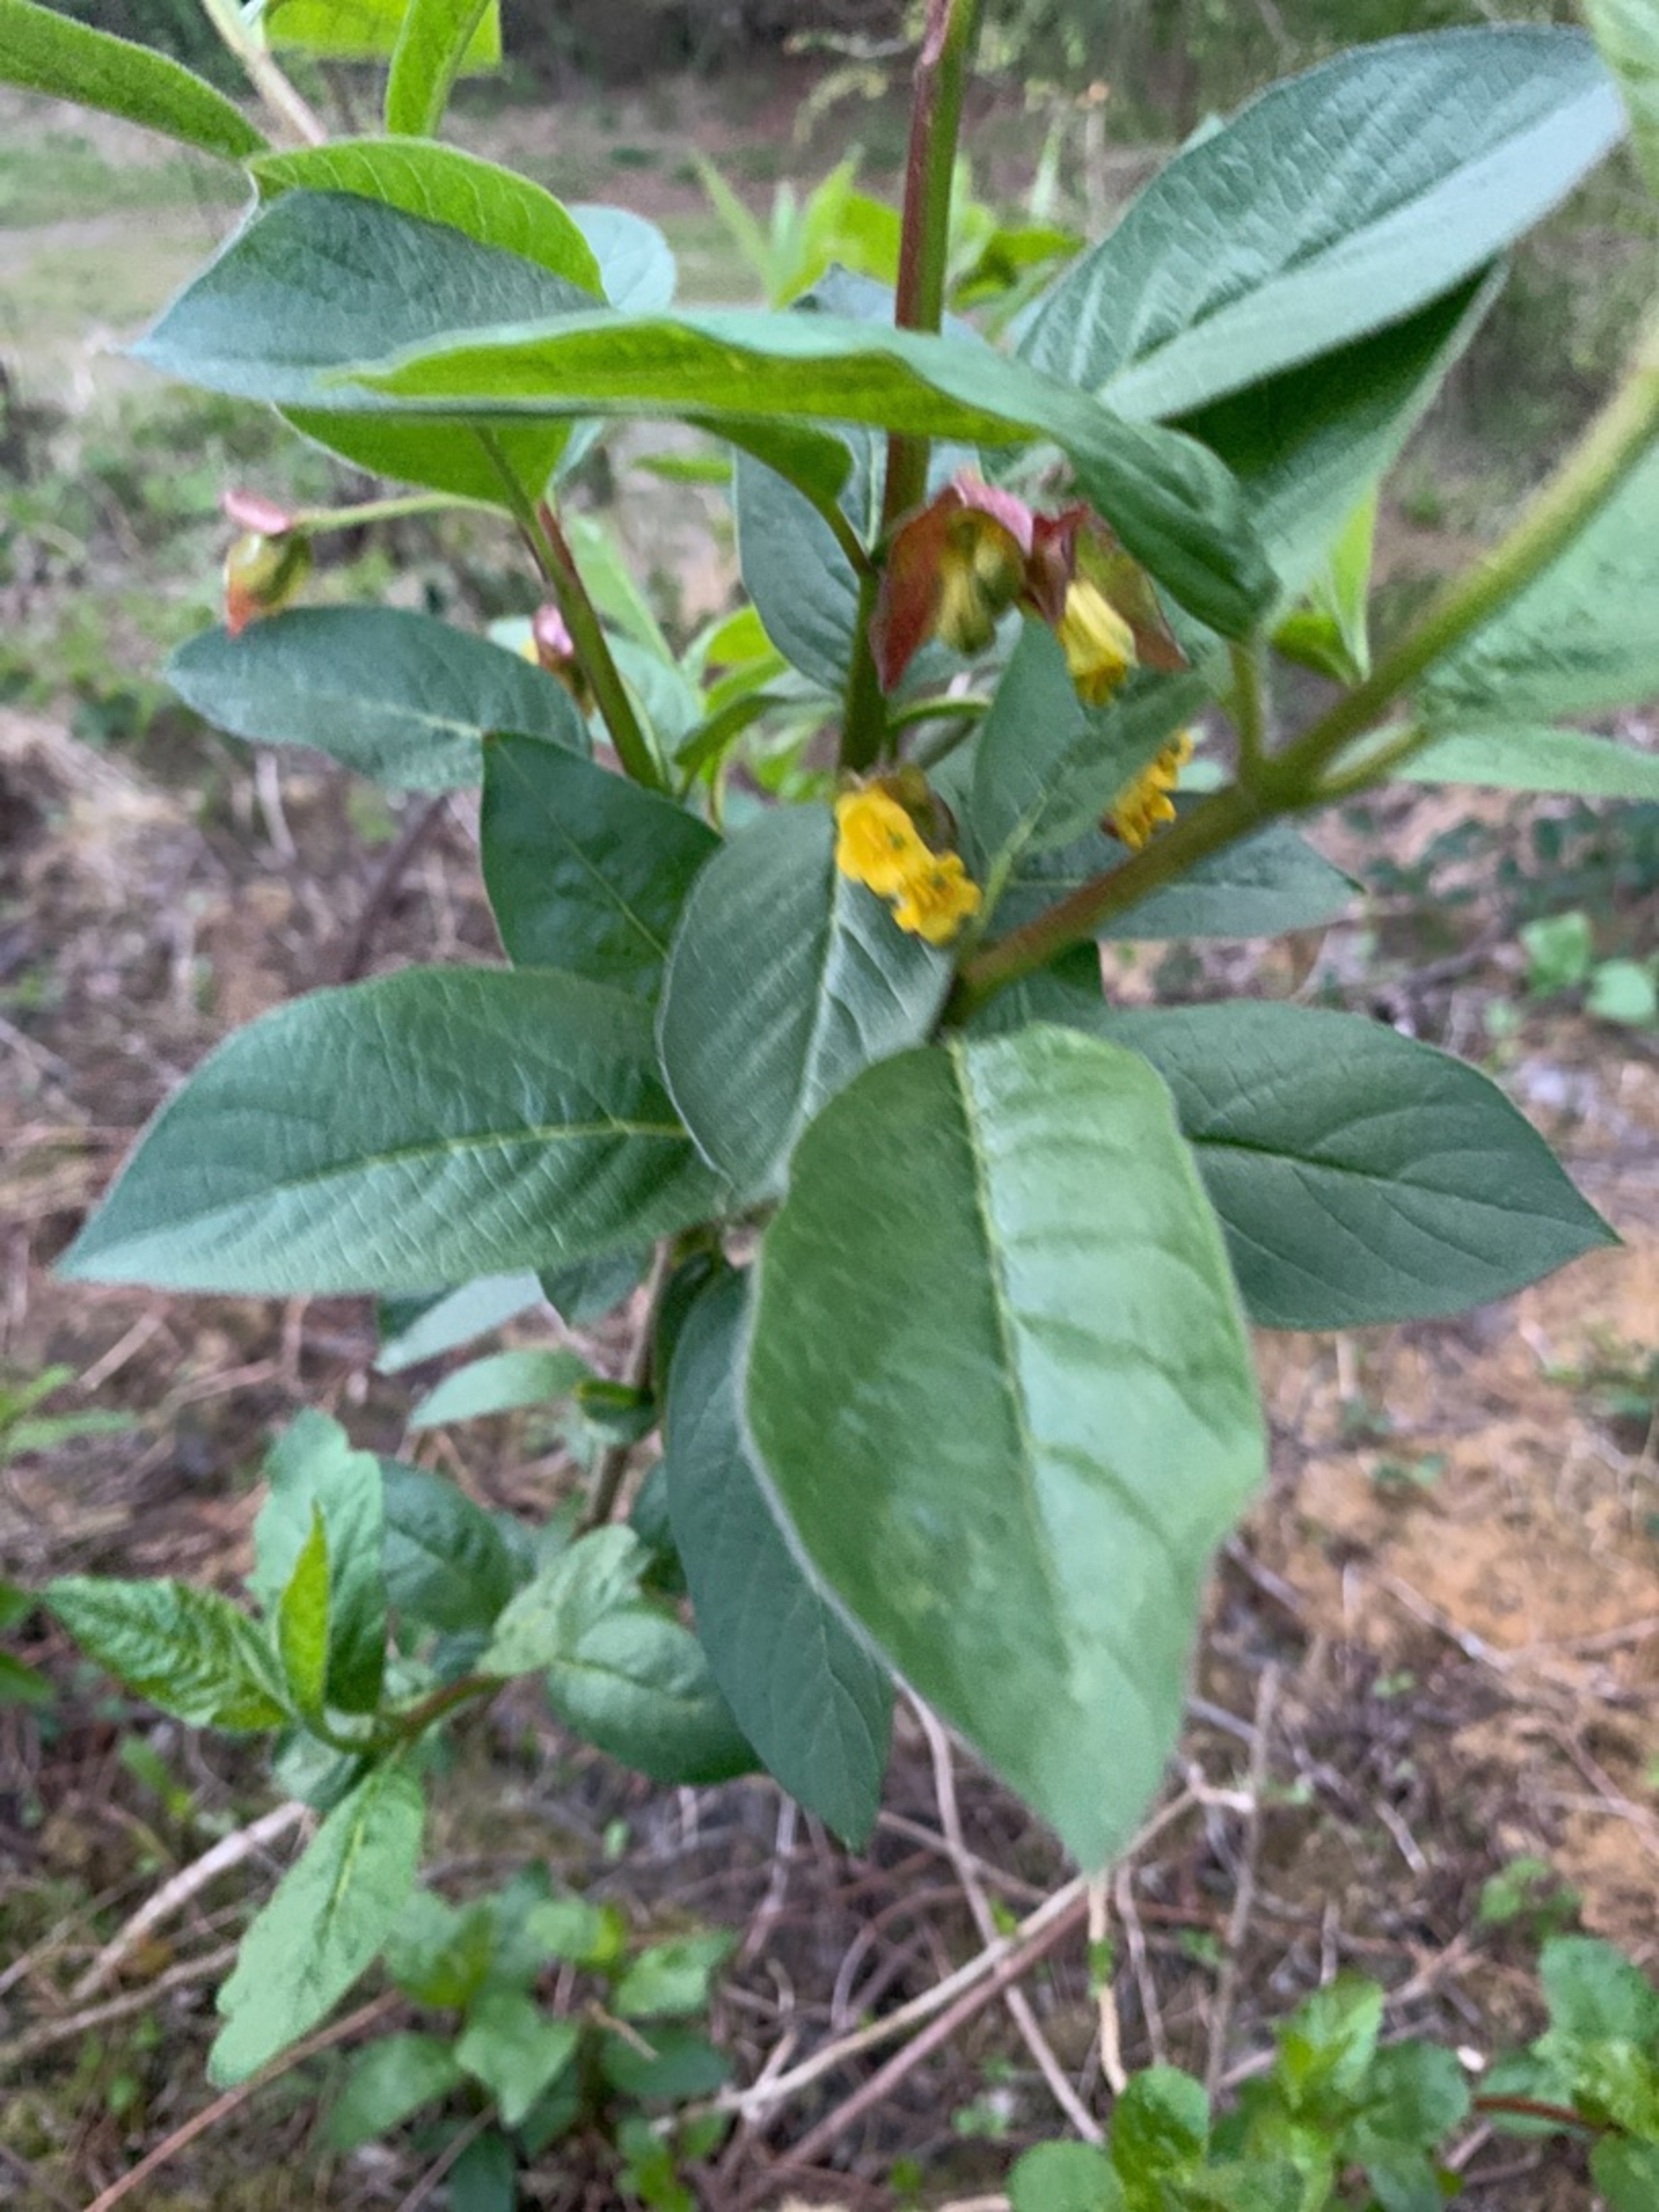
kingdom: Plantae
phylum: Tracheophyta
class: Magnoliopsida
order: Dipsacales
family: Caprifoliaceae
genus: Lonicera
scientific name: Lonicera involucrata
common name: Svøb-gedeblad (varietet)
